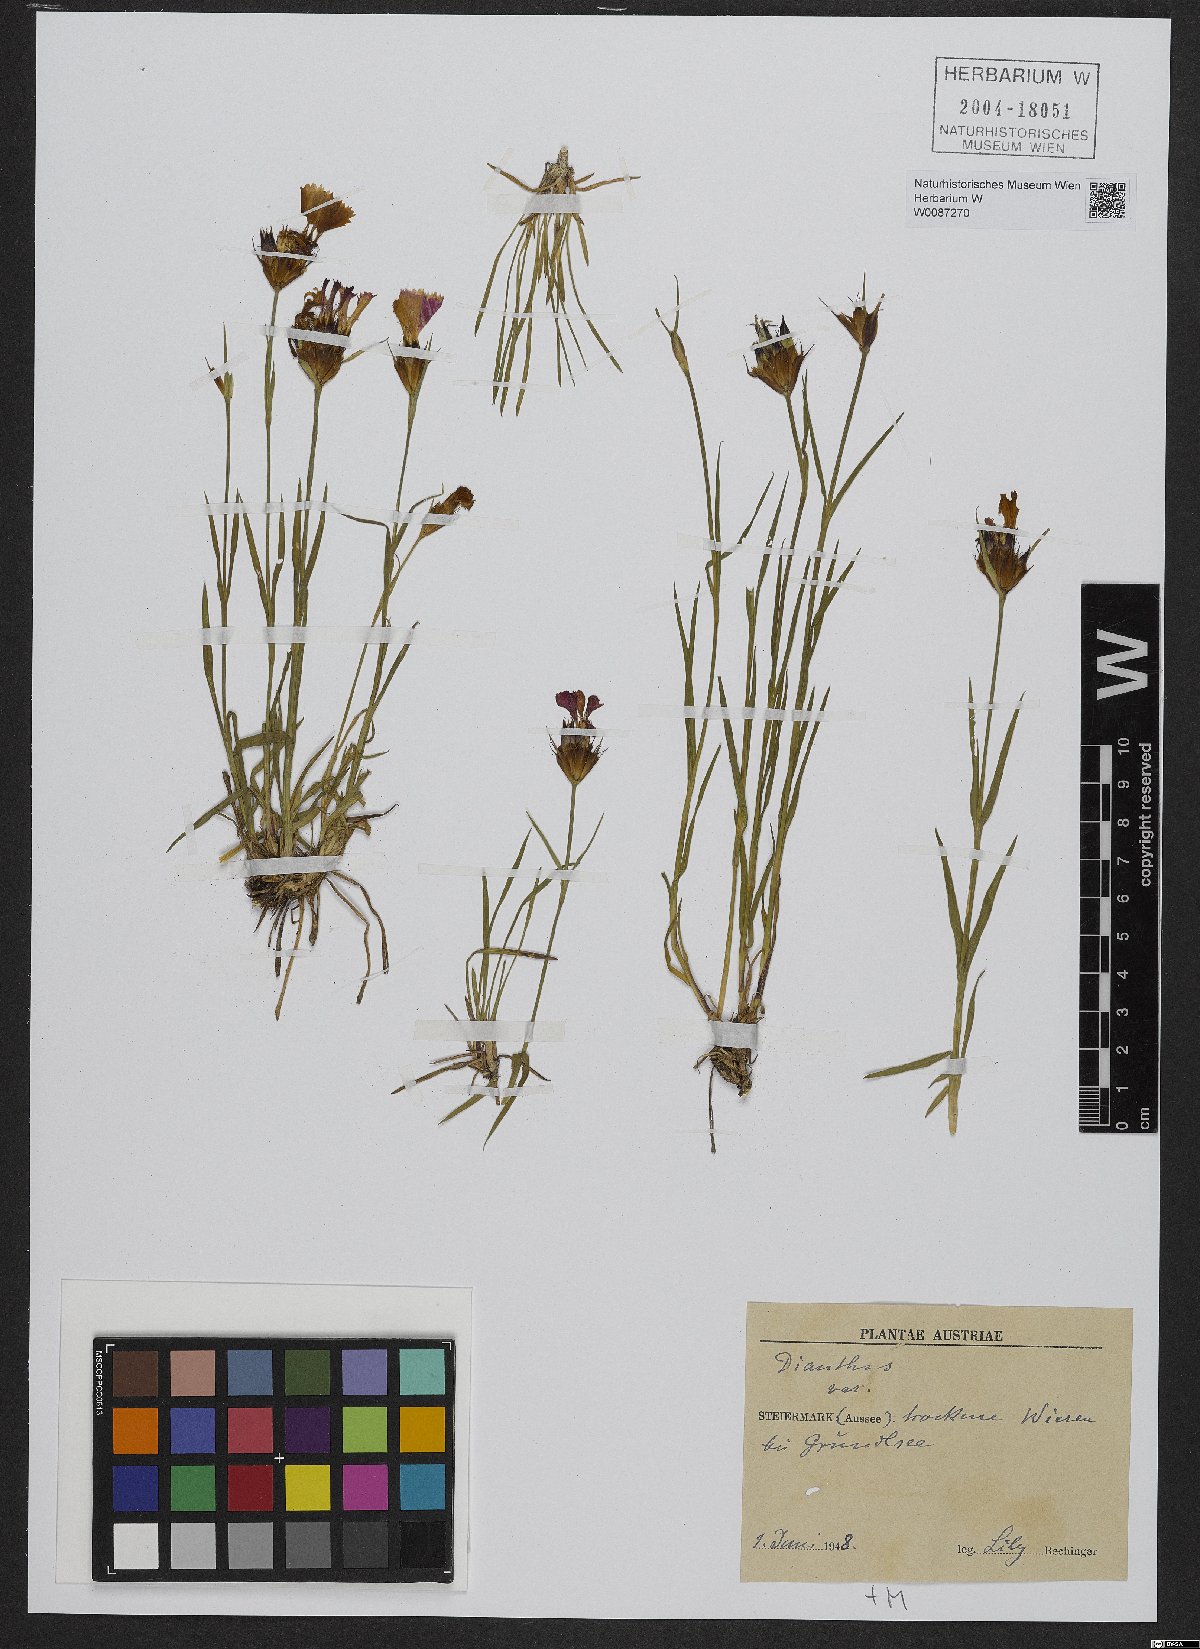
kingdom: Plantae
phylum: Tracheophyta
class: Magnoliopsida
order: Caryophyllales
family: Caryophyllaceae
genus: Dianthus
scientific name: Dianthus barbatus
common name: Sweet-william
